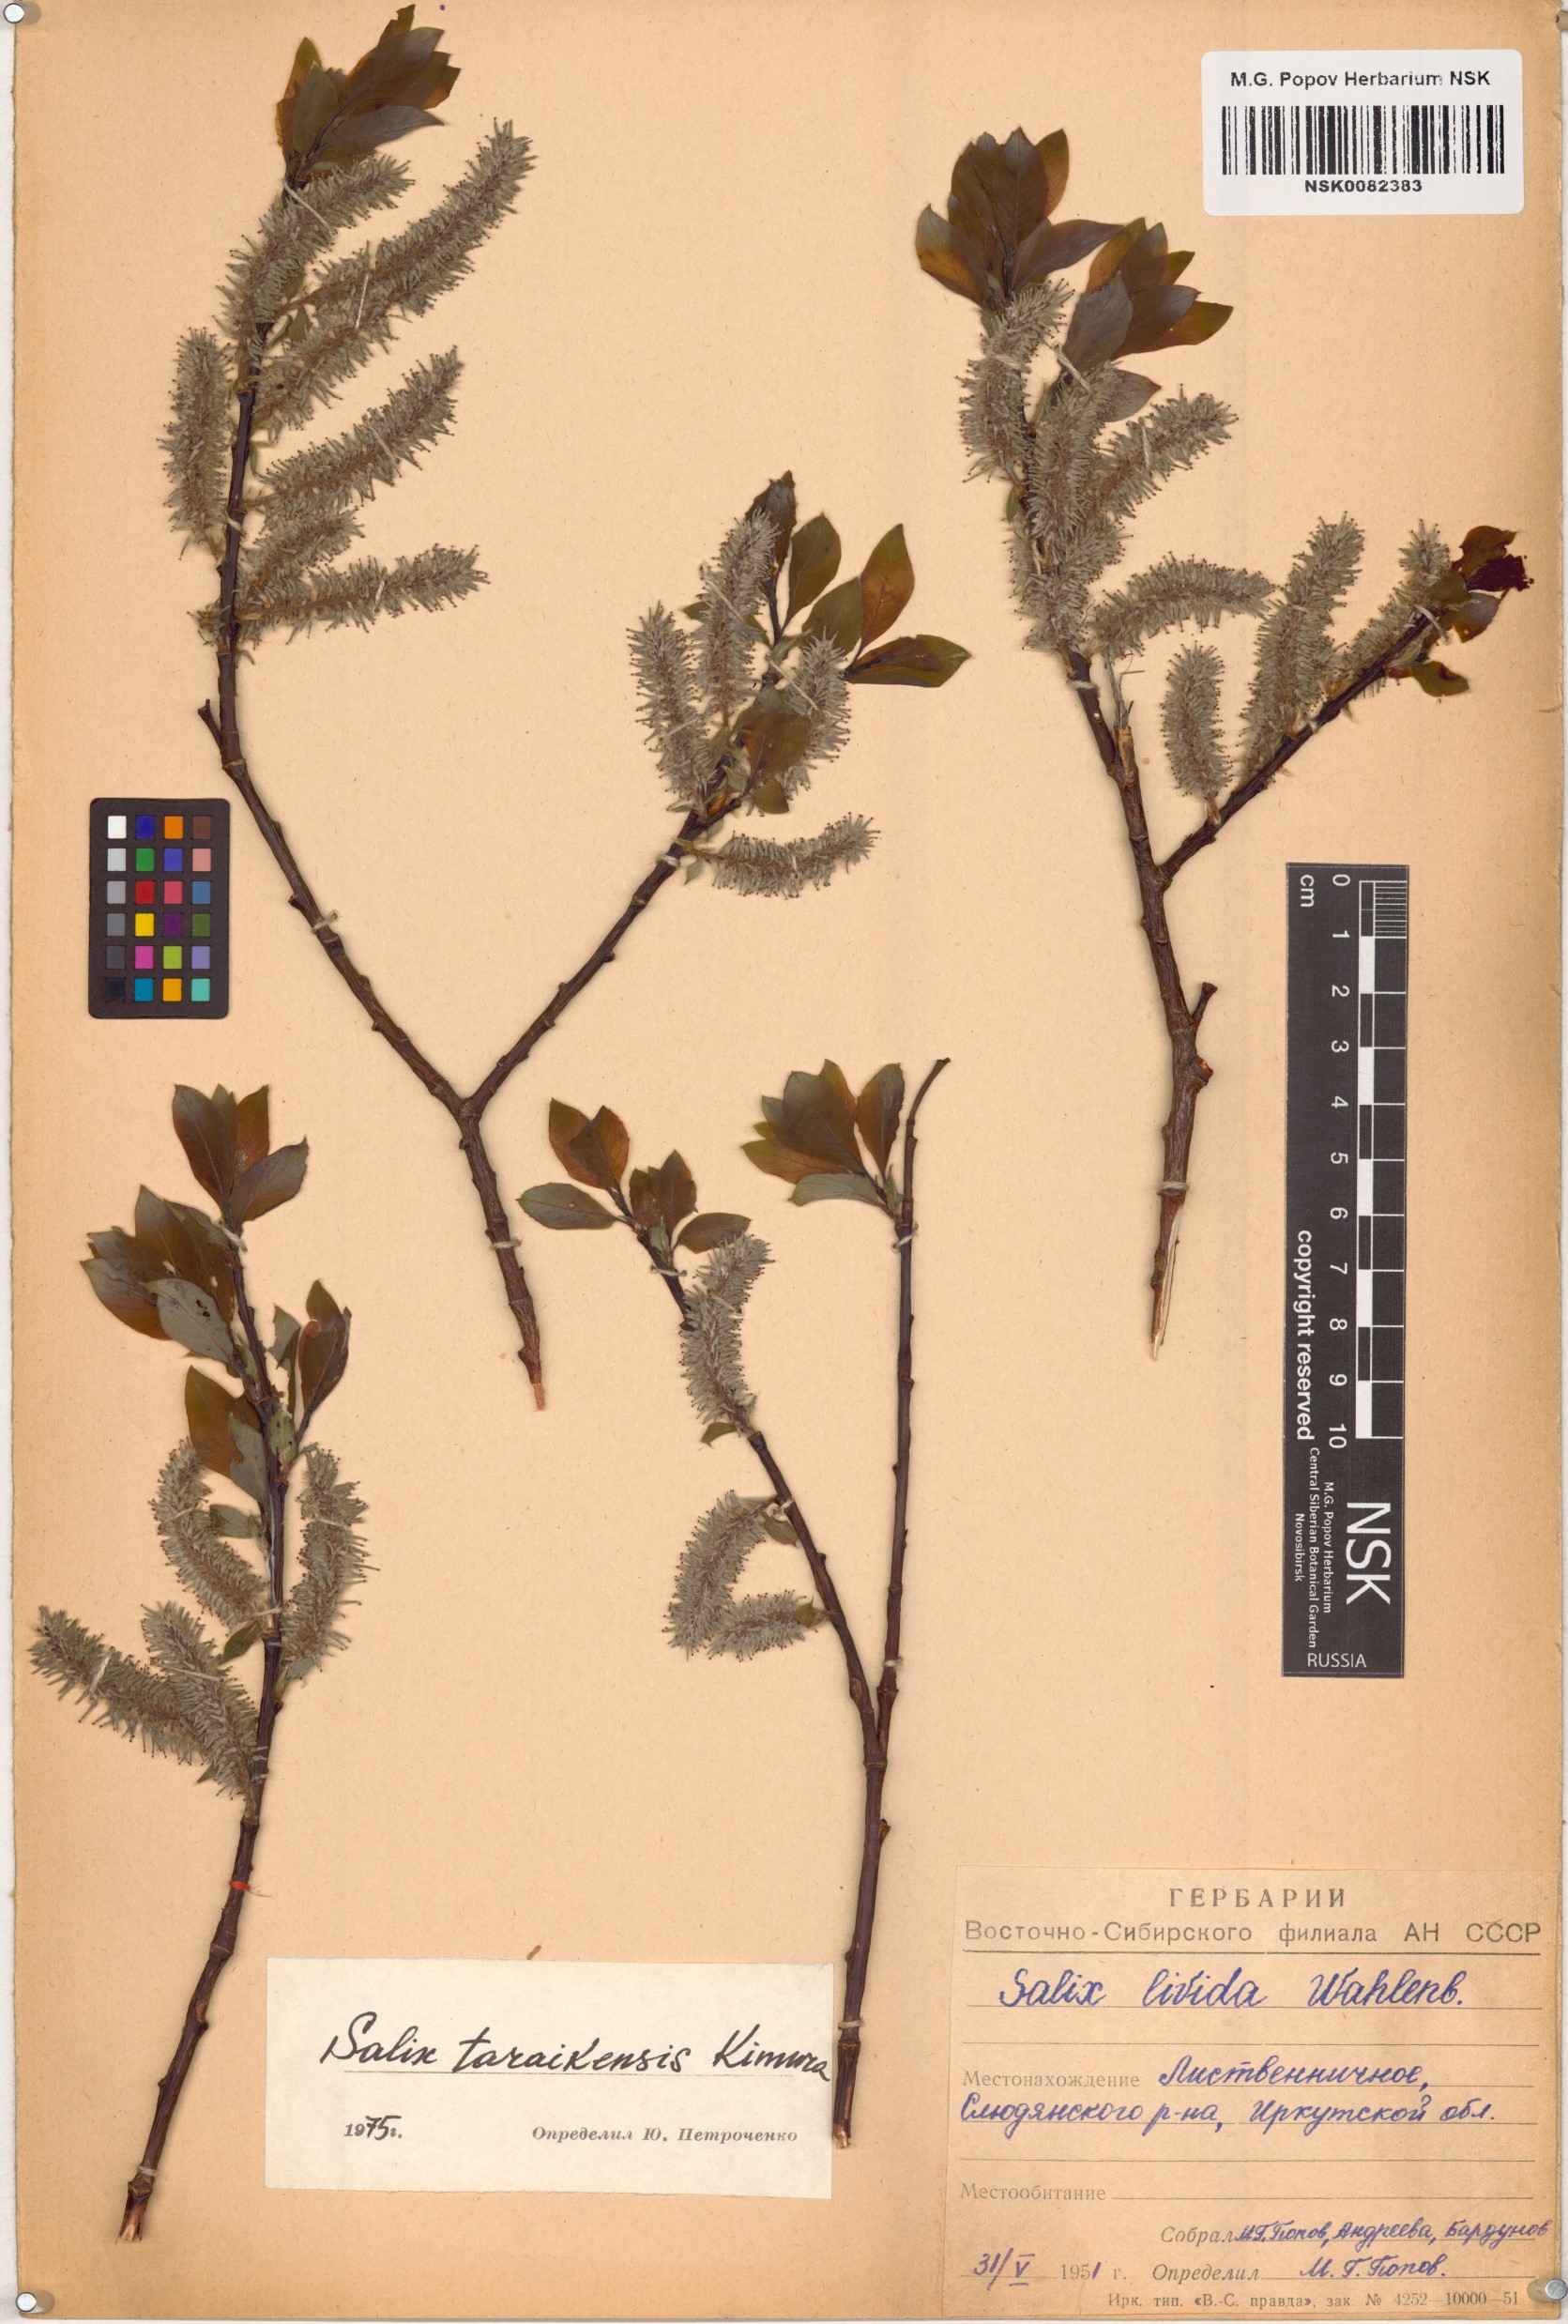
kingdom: Plantae
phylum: Tracheophyta
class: Magnoliopsida
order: Malpighiales
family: Salicaceae
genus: Salix
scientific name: Salix taraikensis
